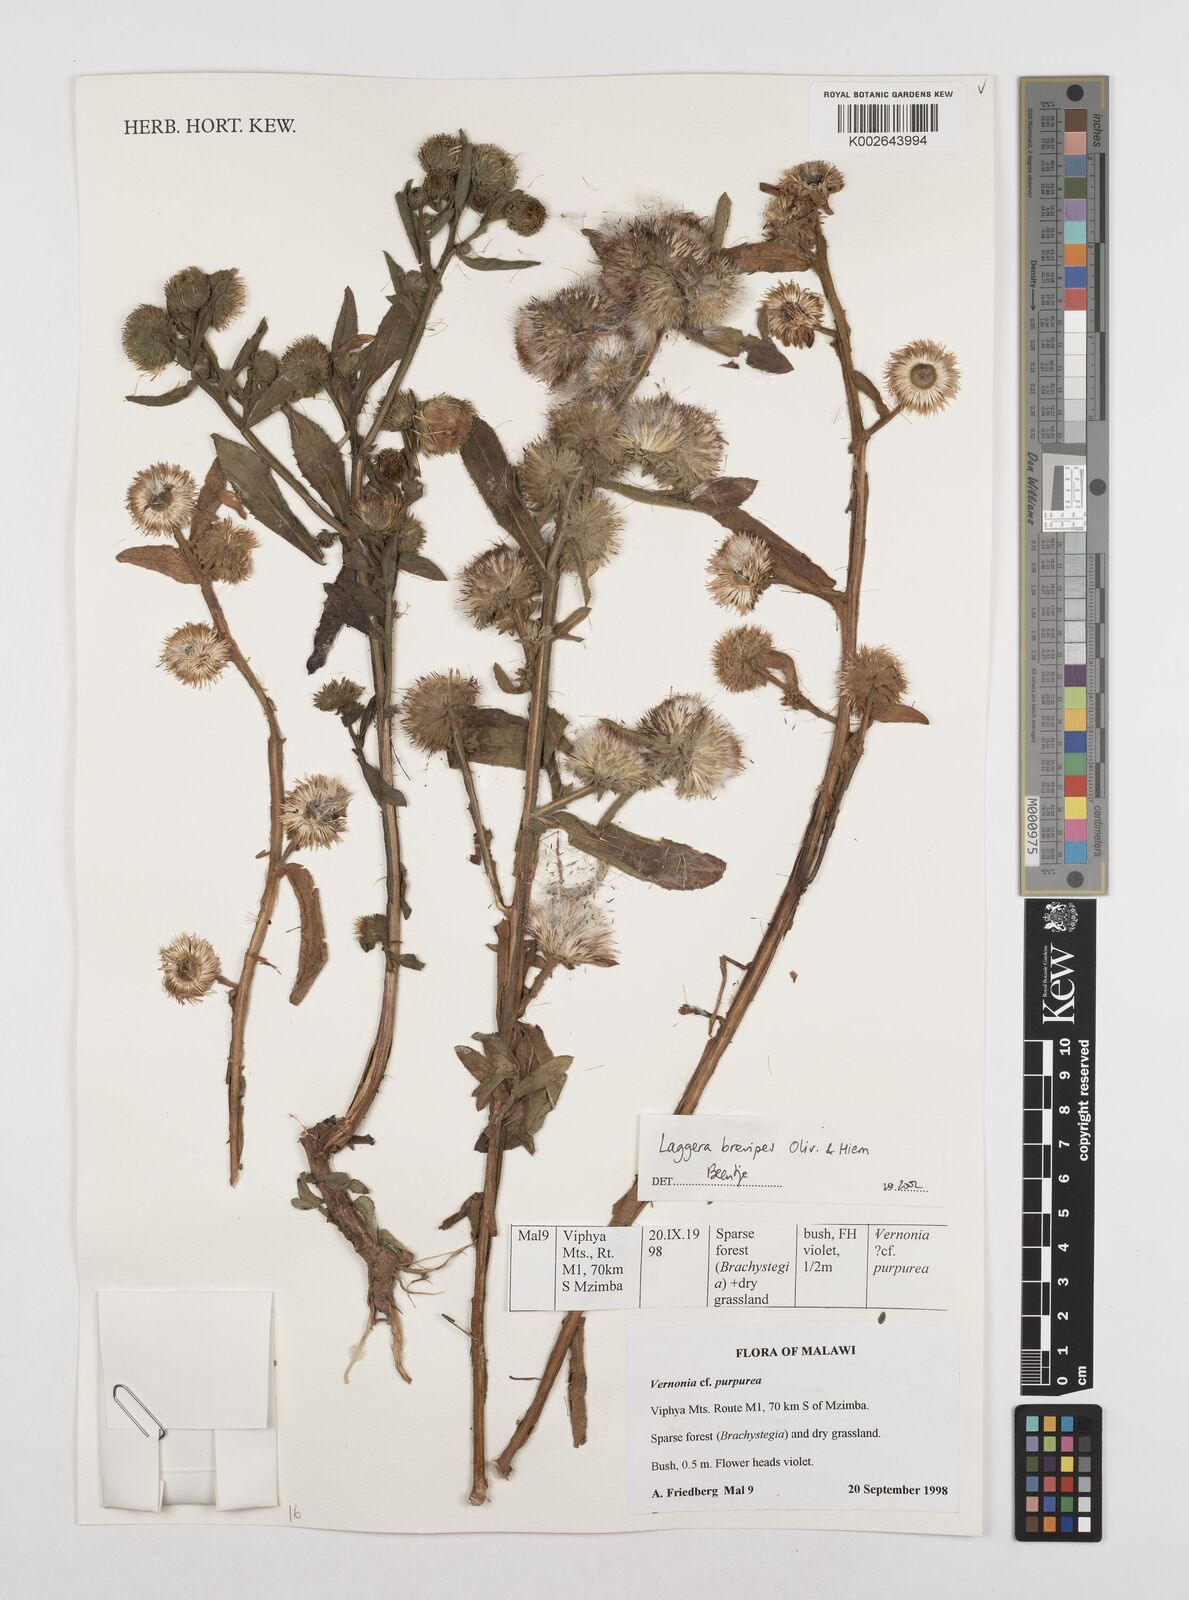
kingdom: Plantae
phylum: Tracheophyta
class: Magnoliopsida
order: Asterales
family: Asteraceae
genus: Laggera
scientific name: Laggera brevipes
